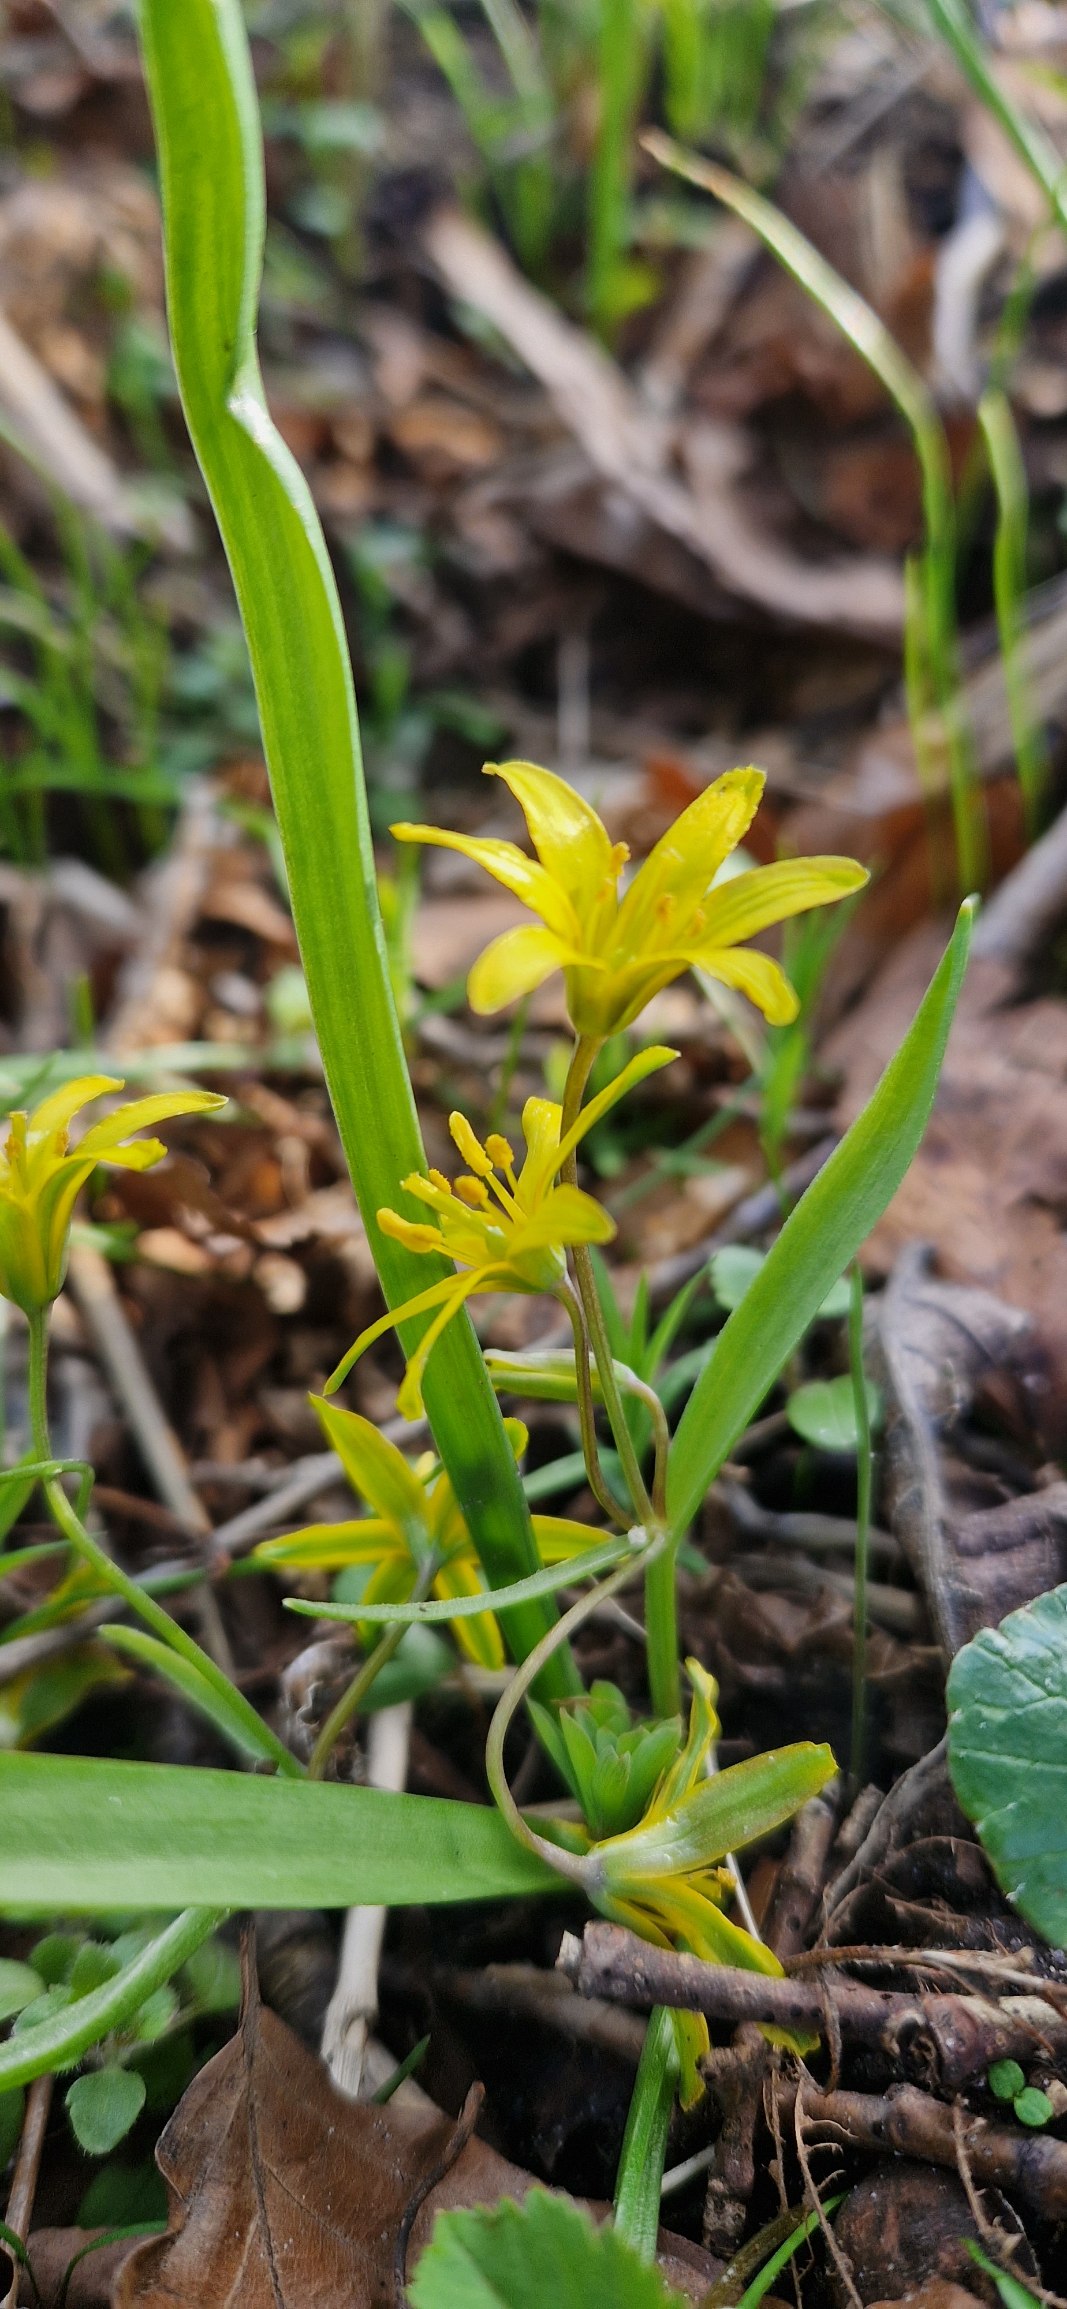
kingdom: Plantae
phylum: Tracheophyta
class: Liliopsida
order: Liliales
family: Liliaceae
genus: Gagea
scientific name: Gagea lutea
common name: Almindelig guldstjerne
